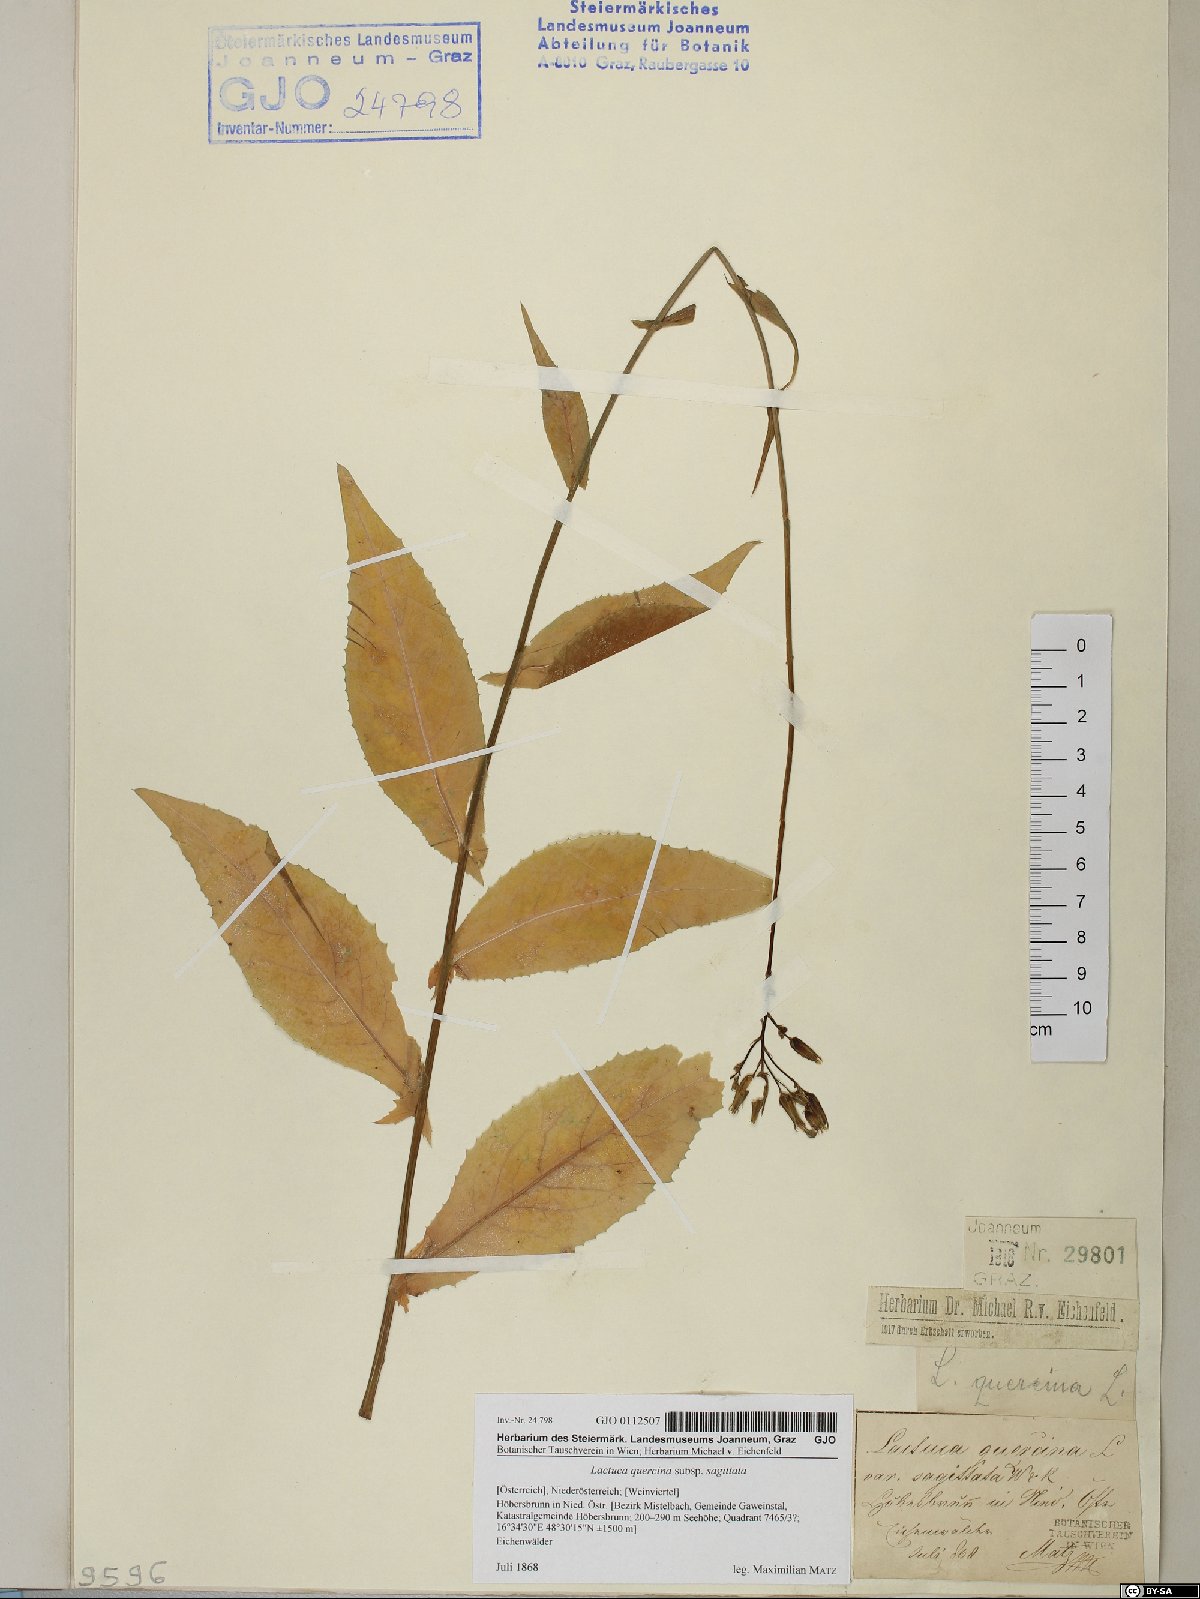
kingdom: Plantae
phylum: Tracheophyta
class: Magnoliopsida
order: Asterales
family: Asteraceae
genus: Lactuca
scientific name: Lactuca quercina
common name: Wild lettuce
